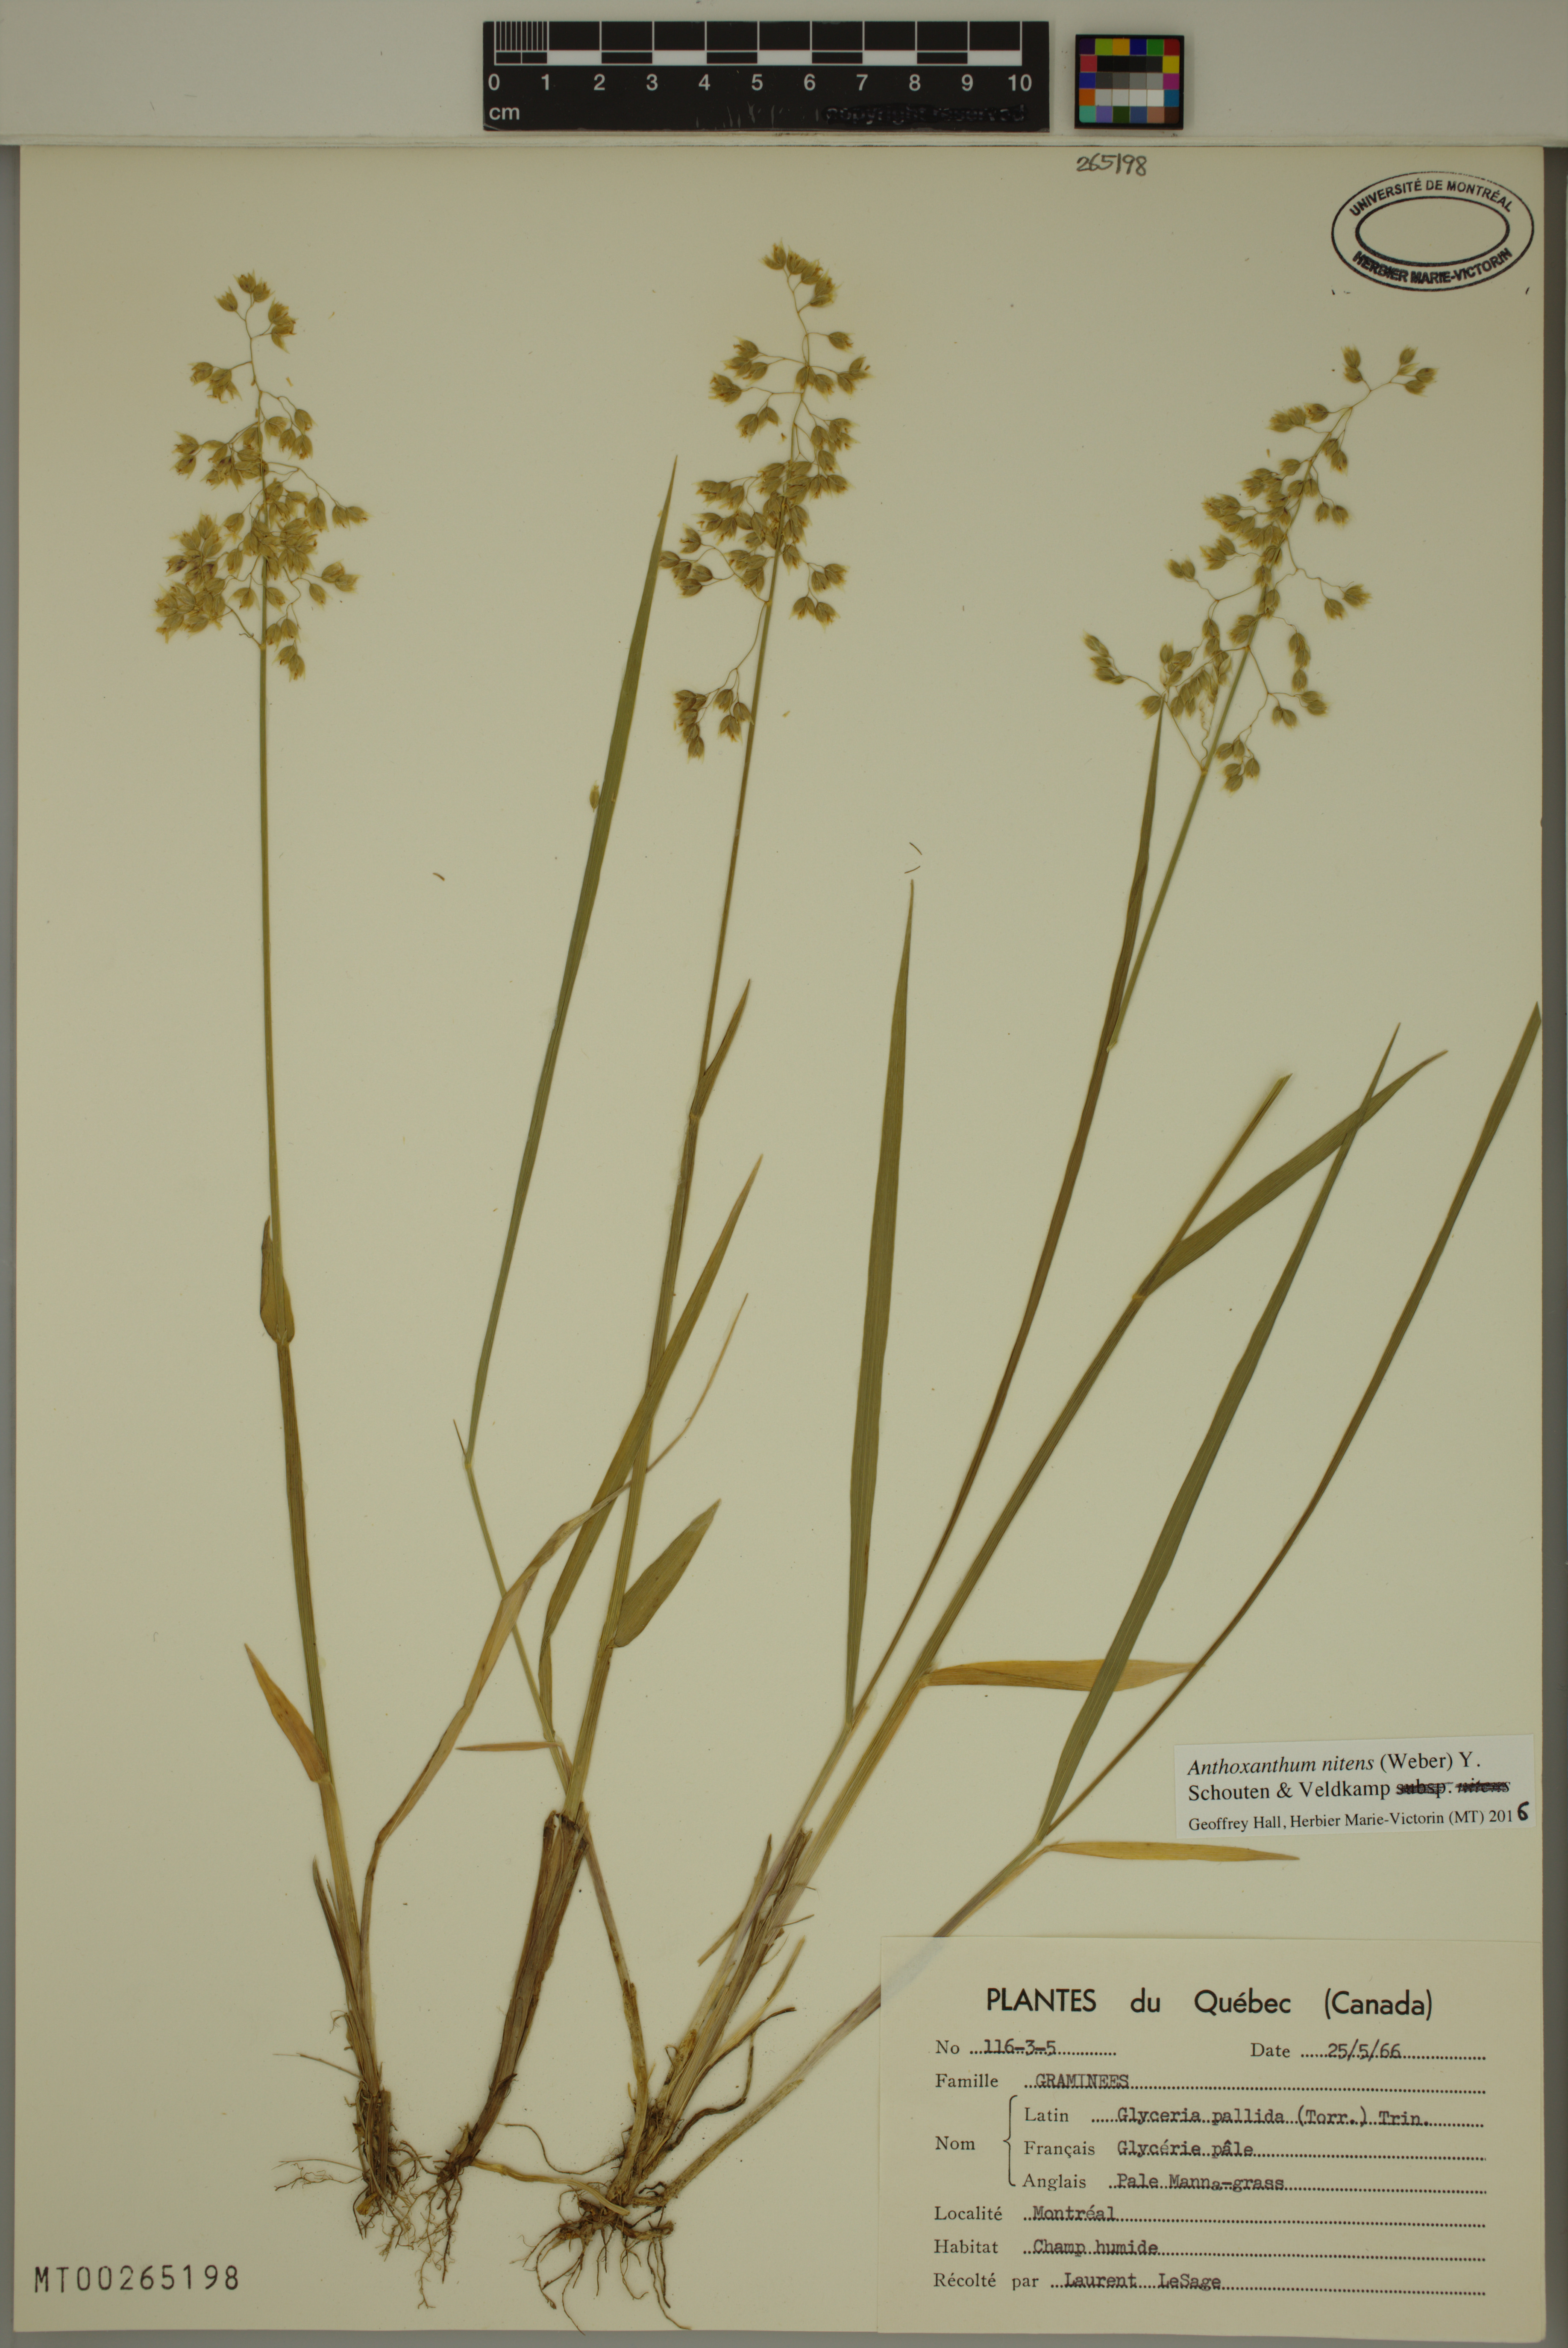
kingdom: Plantae
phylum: Tracheophyta
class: Liliopsida
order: Poales
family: Poaceae
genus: Anthoxanthum
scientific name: Anthoxanthum nitens
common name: Holy grass
